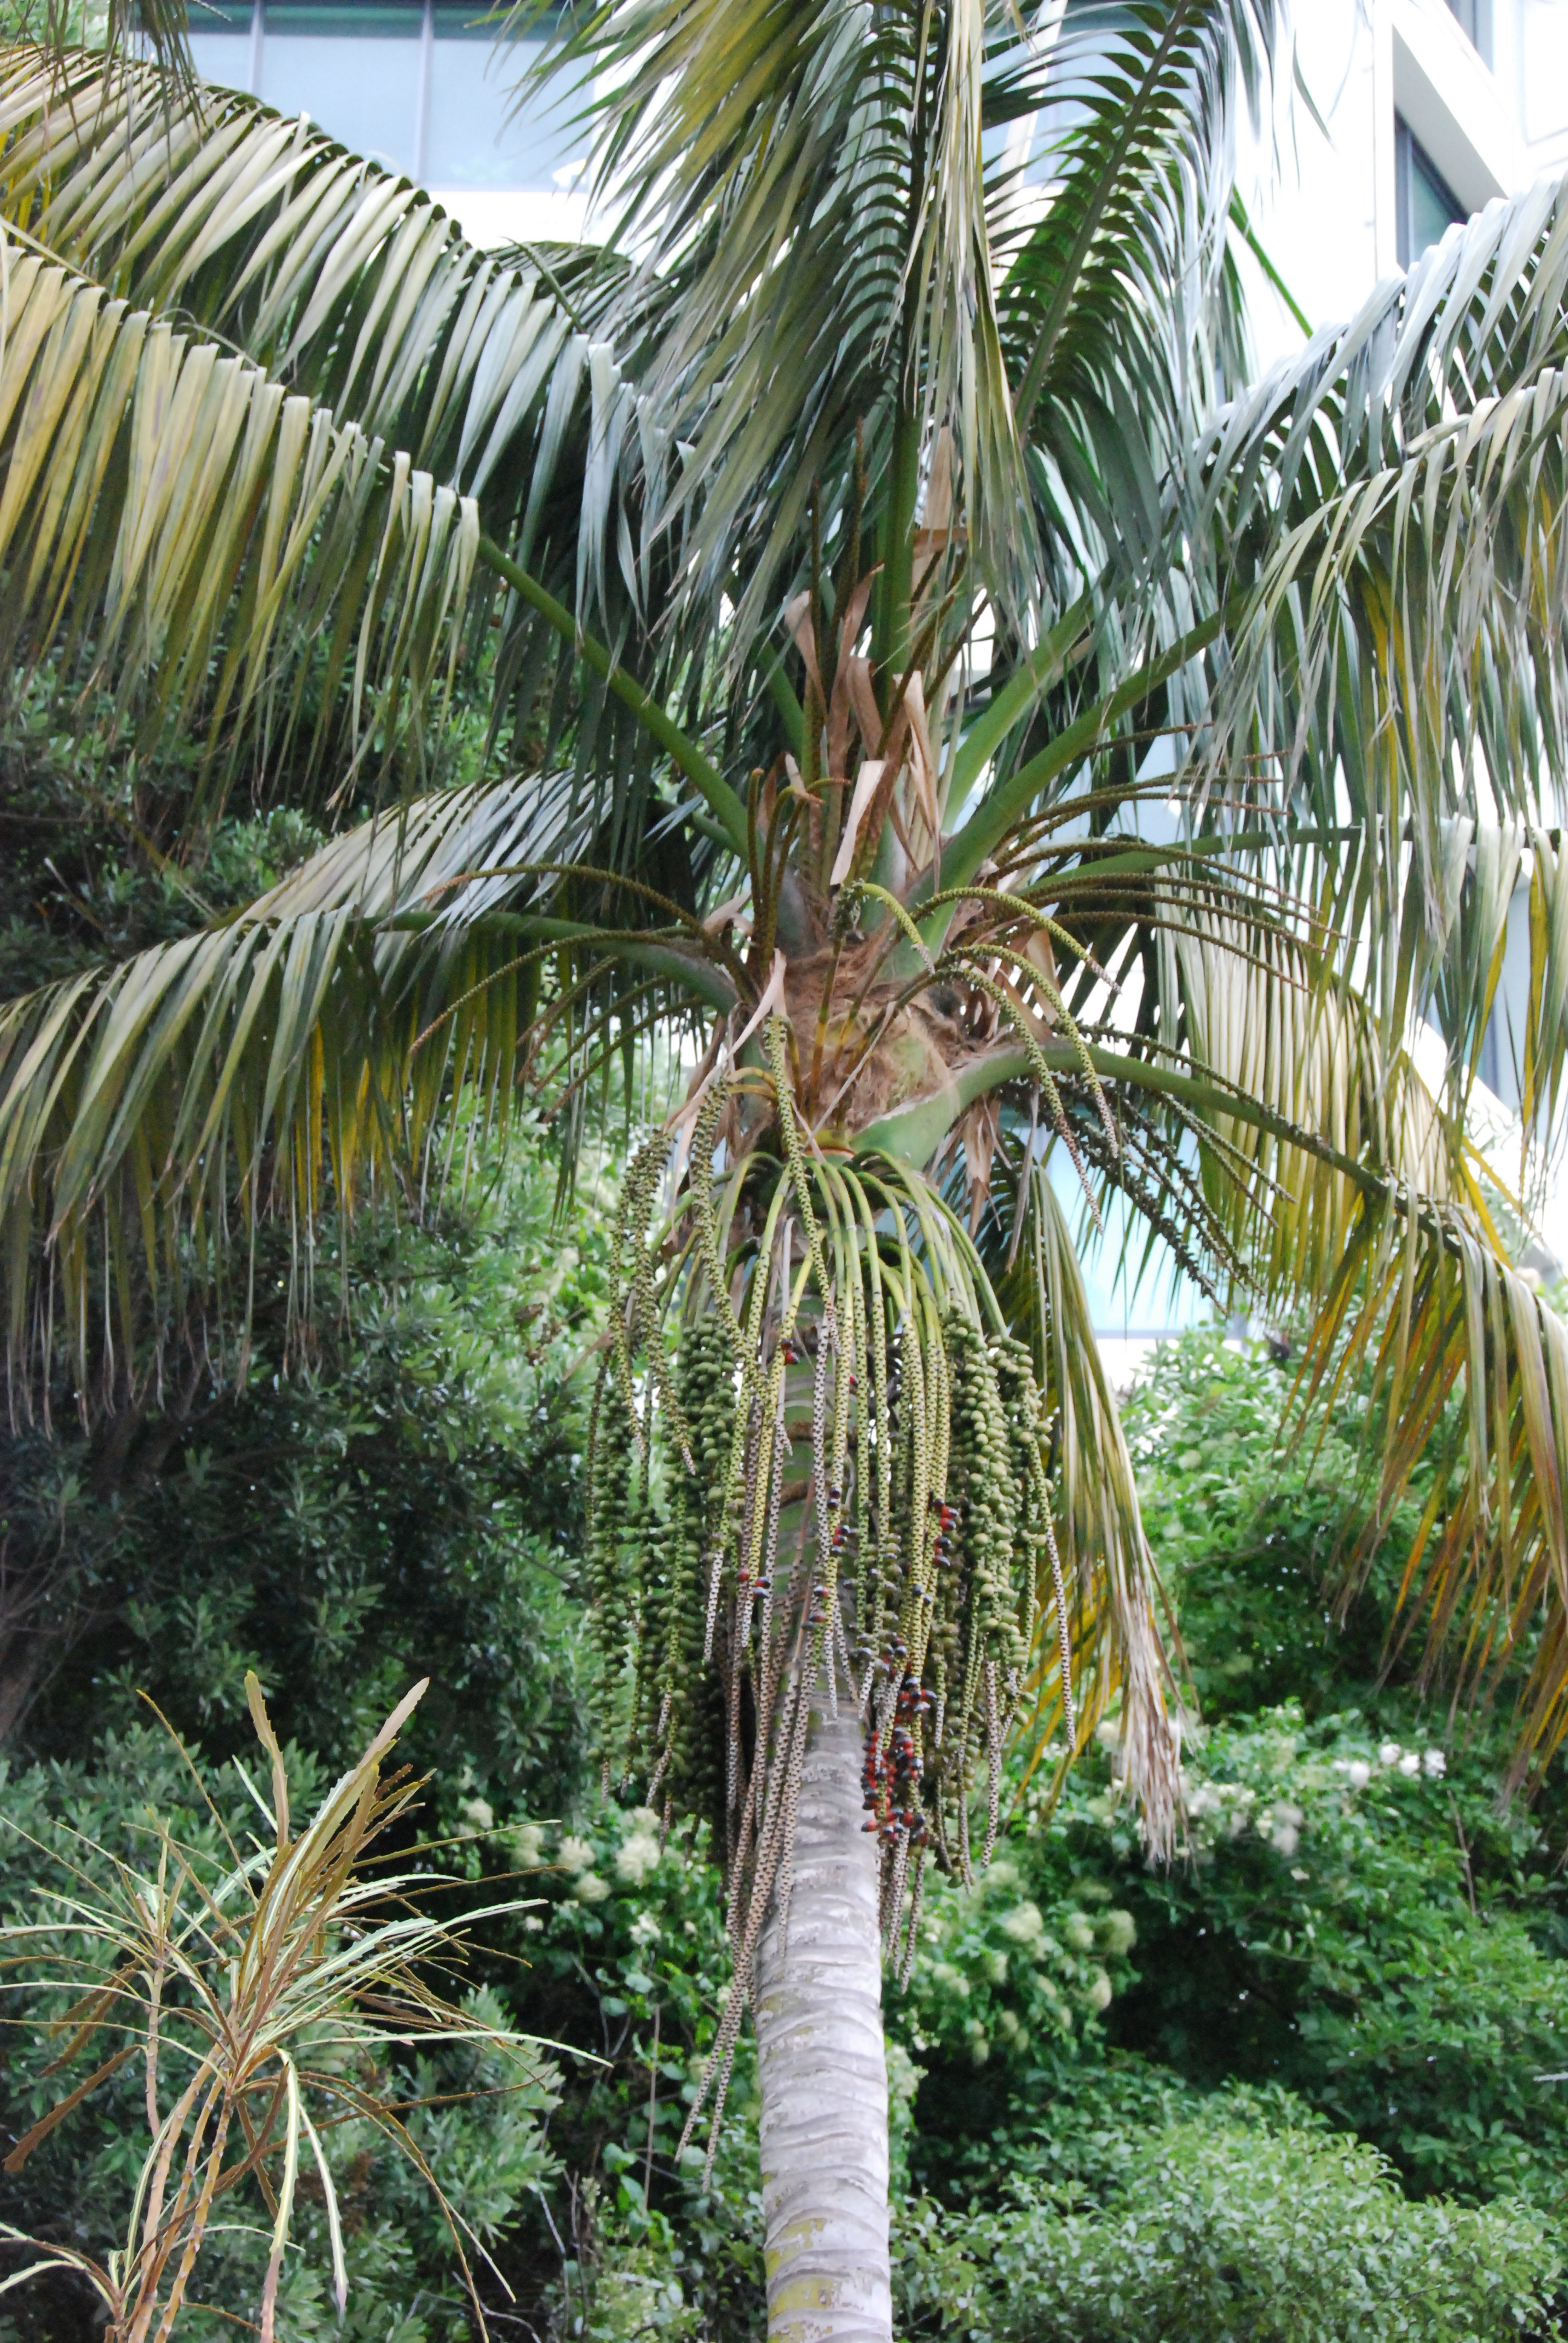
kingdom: Plantae
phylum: Tracheophyta
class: Liliopsida
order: Arecales
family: Arecaceae
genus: Howea
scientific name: Howea forsteriana
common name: Kentia palm
